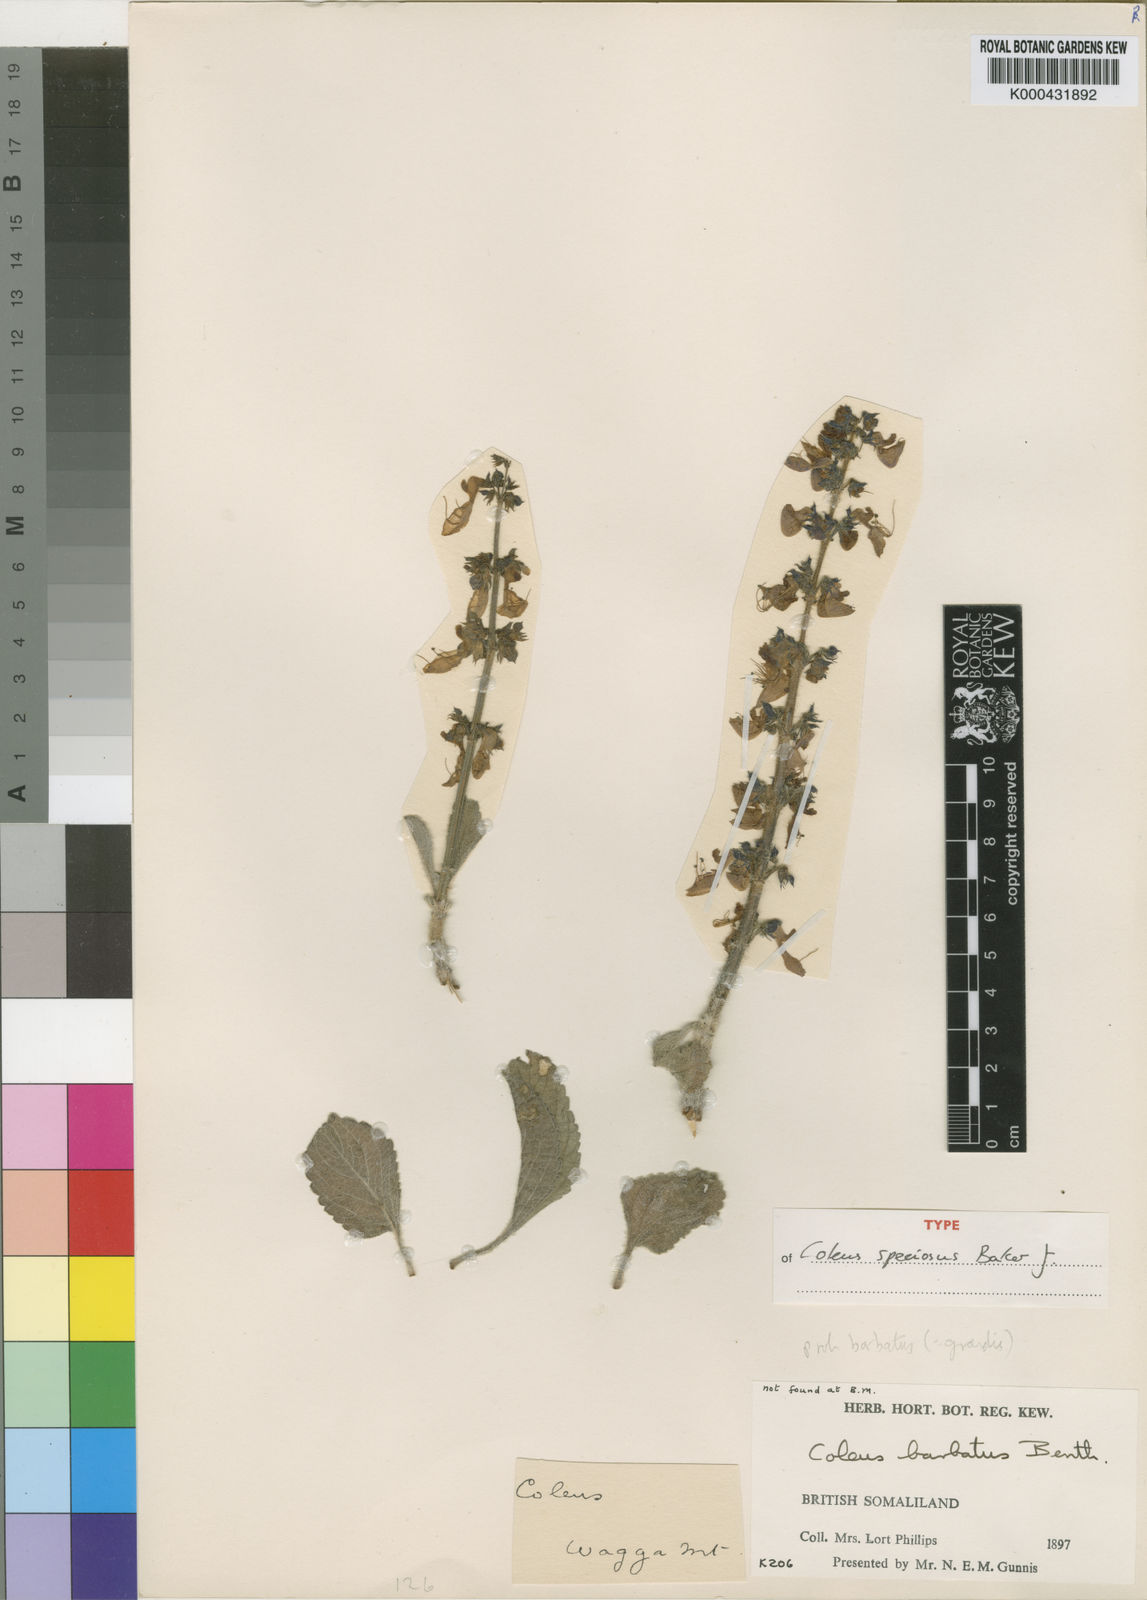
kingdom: Plantae
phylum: Tracheophyta
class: Magnoliopsida
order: Lamiales
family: Lamiaceae
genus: Coleus
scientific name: Coleus barbatus
